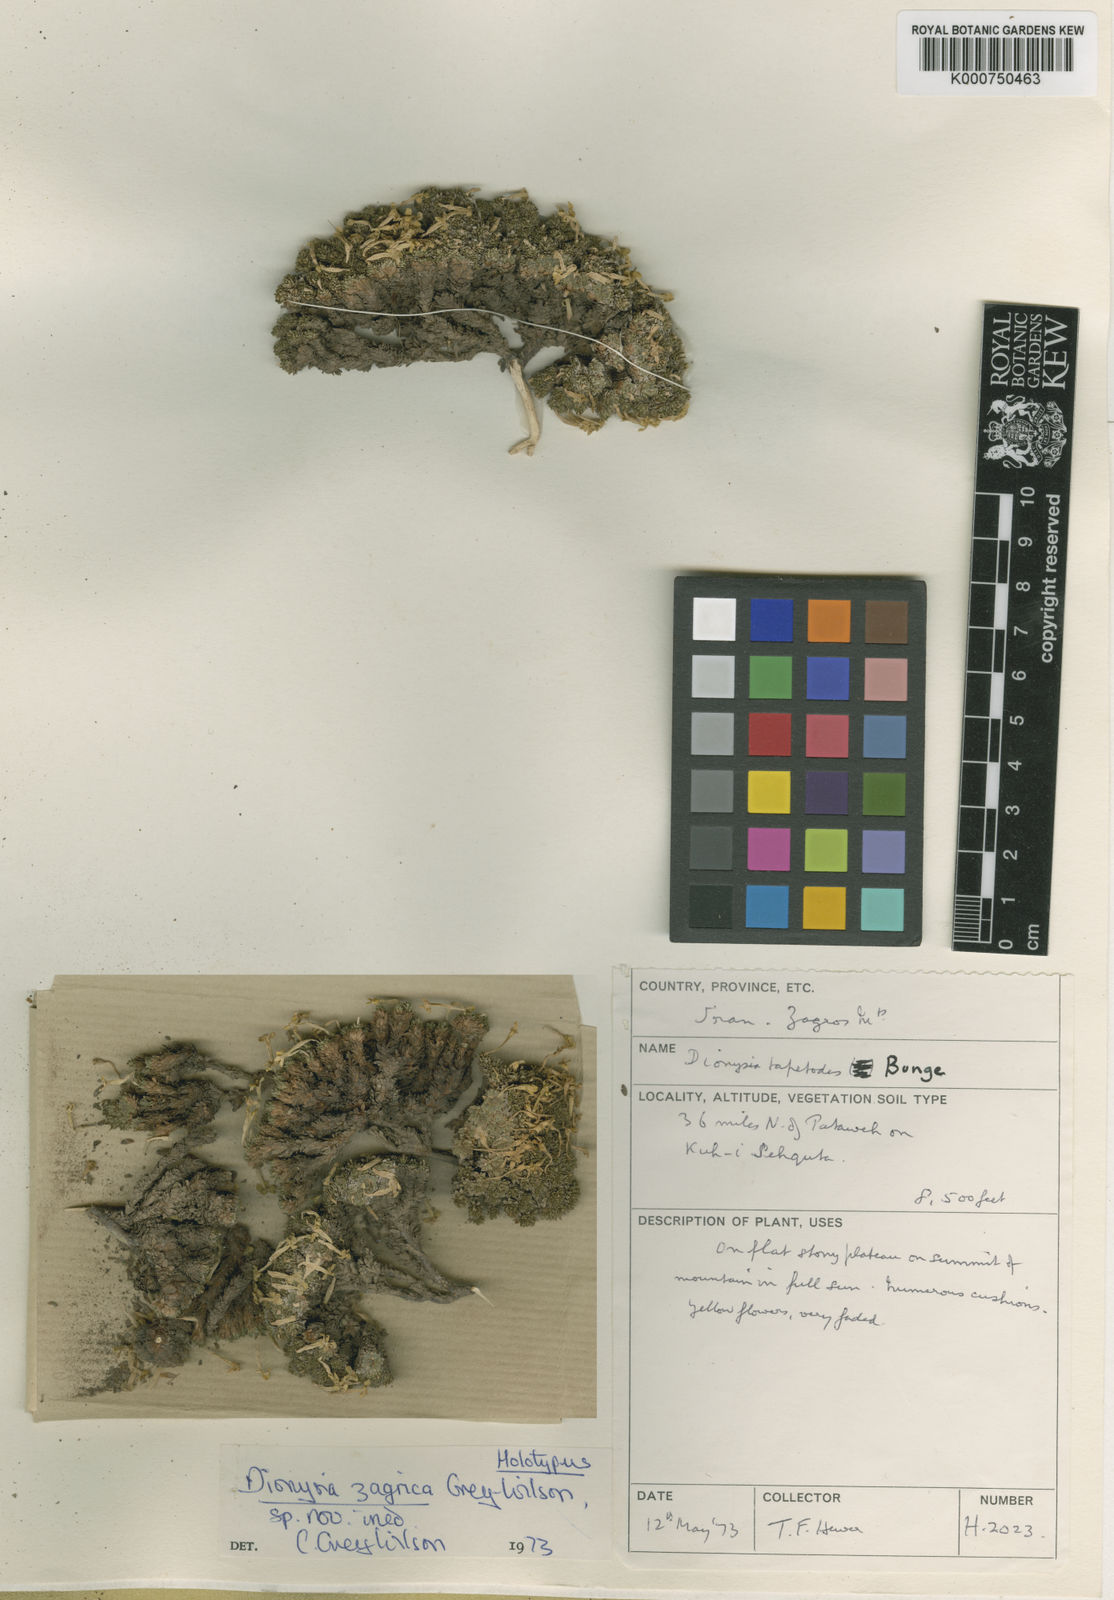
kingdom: Plantae
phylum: Tracheophyta
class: Magnoliopsida
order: Ericales
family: Primulaceae
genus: Dionysia
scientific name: Dionysia zagrica
